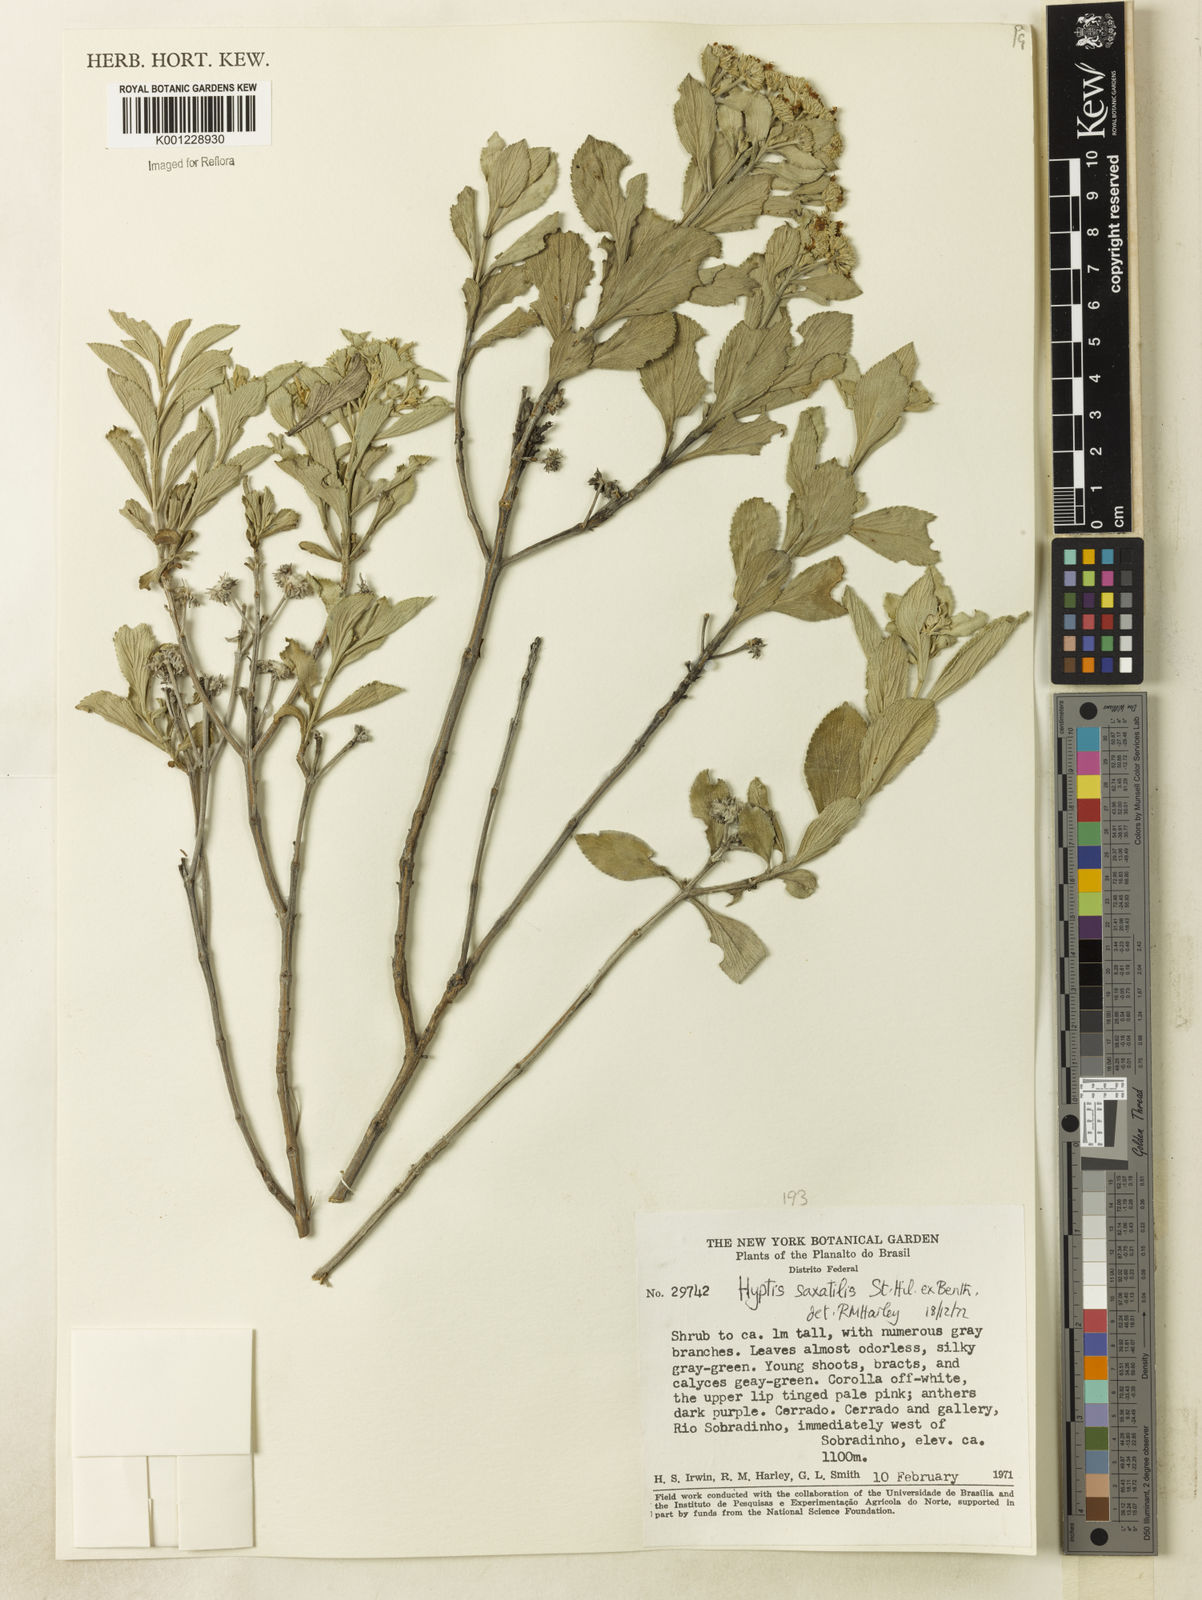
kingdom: Plantae
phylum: Tracheophyta
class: Magnoliopsida
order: Lamiales
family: Lamiaceae
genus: Hyptis
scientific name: Hyptis saxatilis
